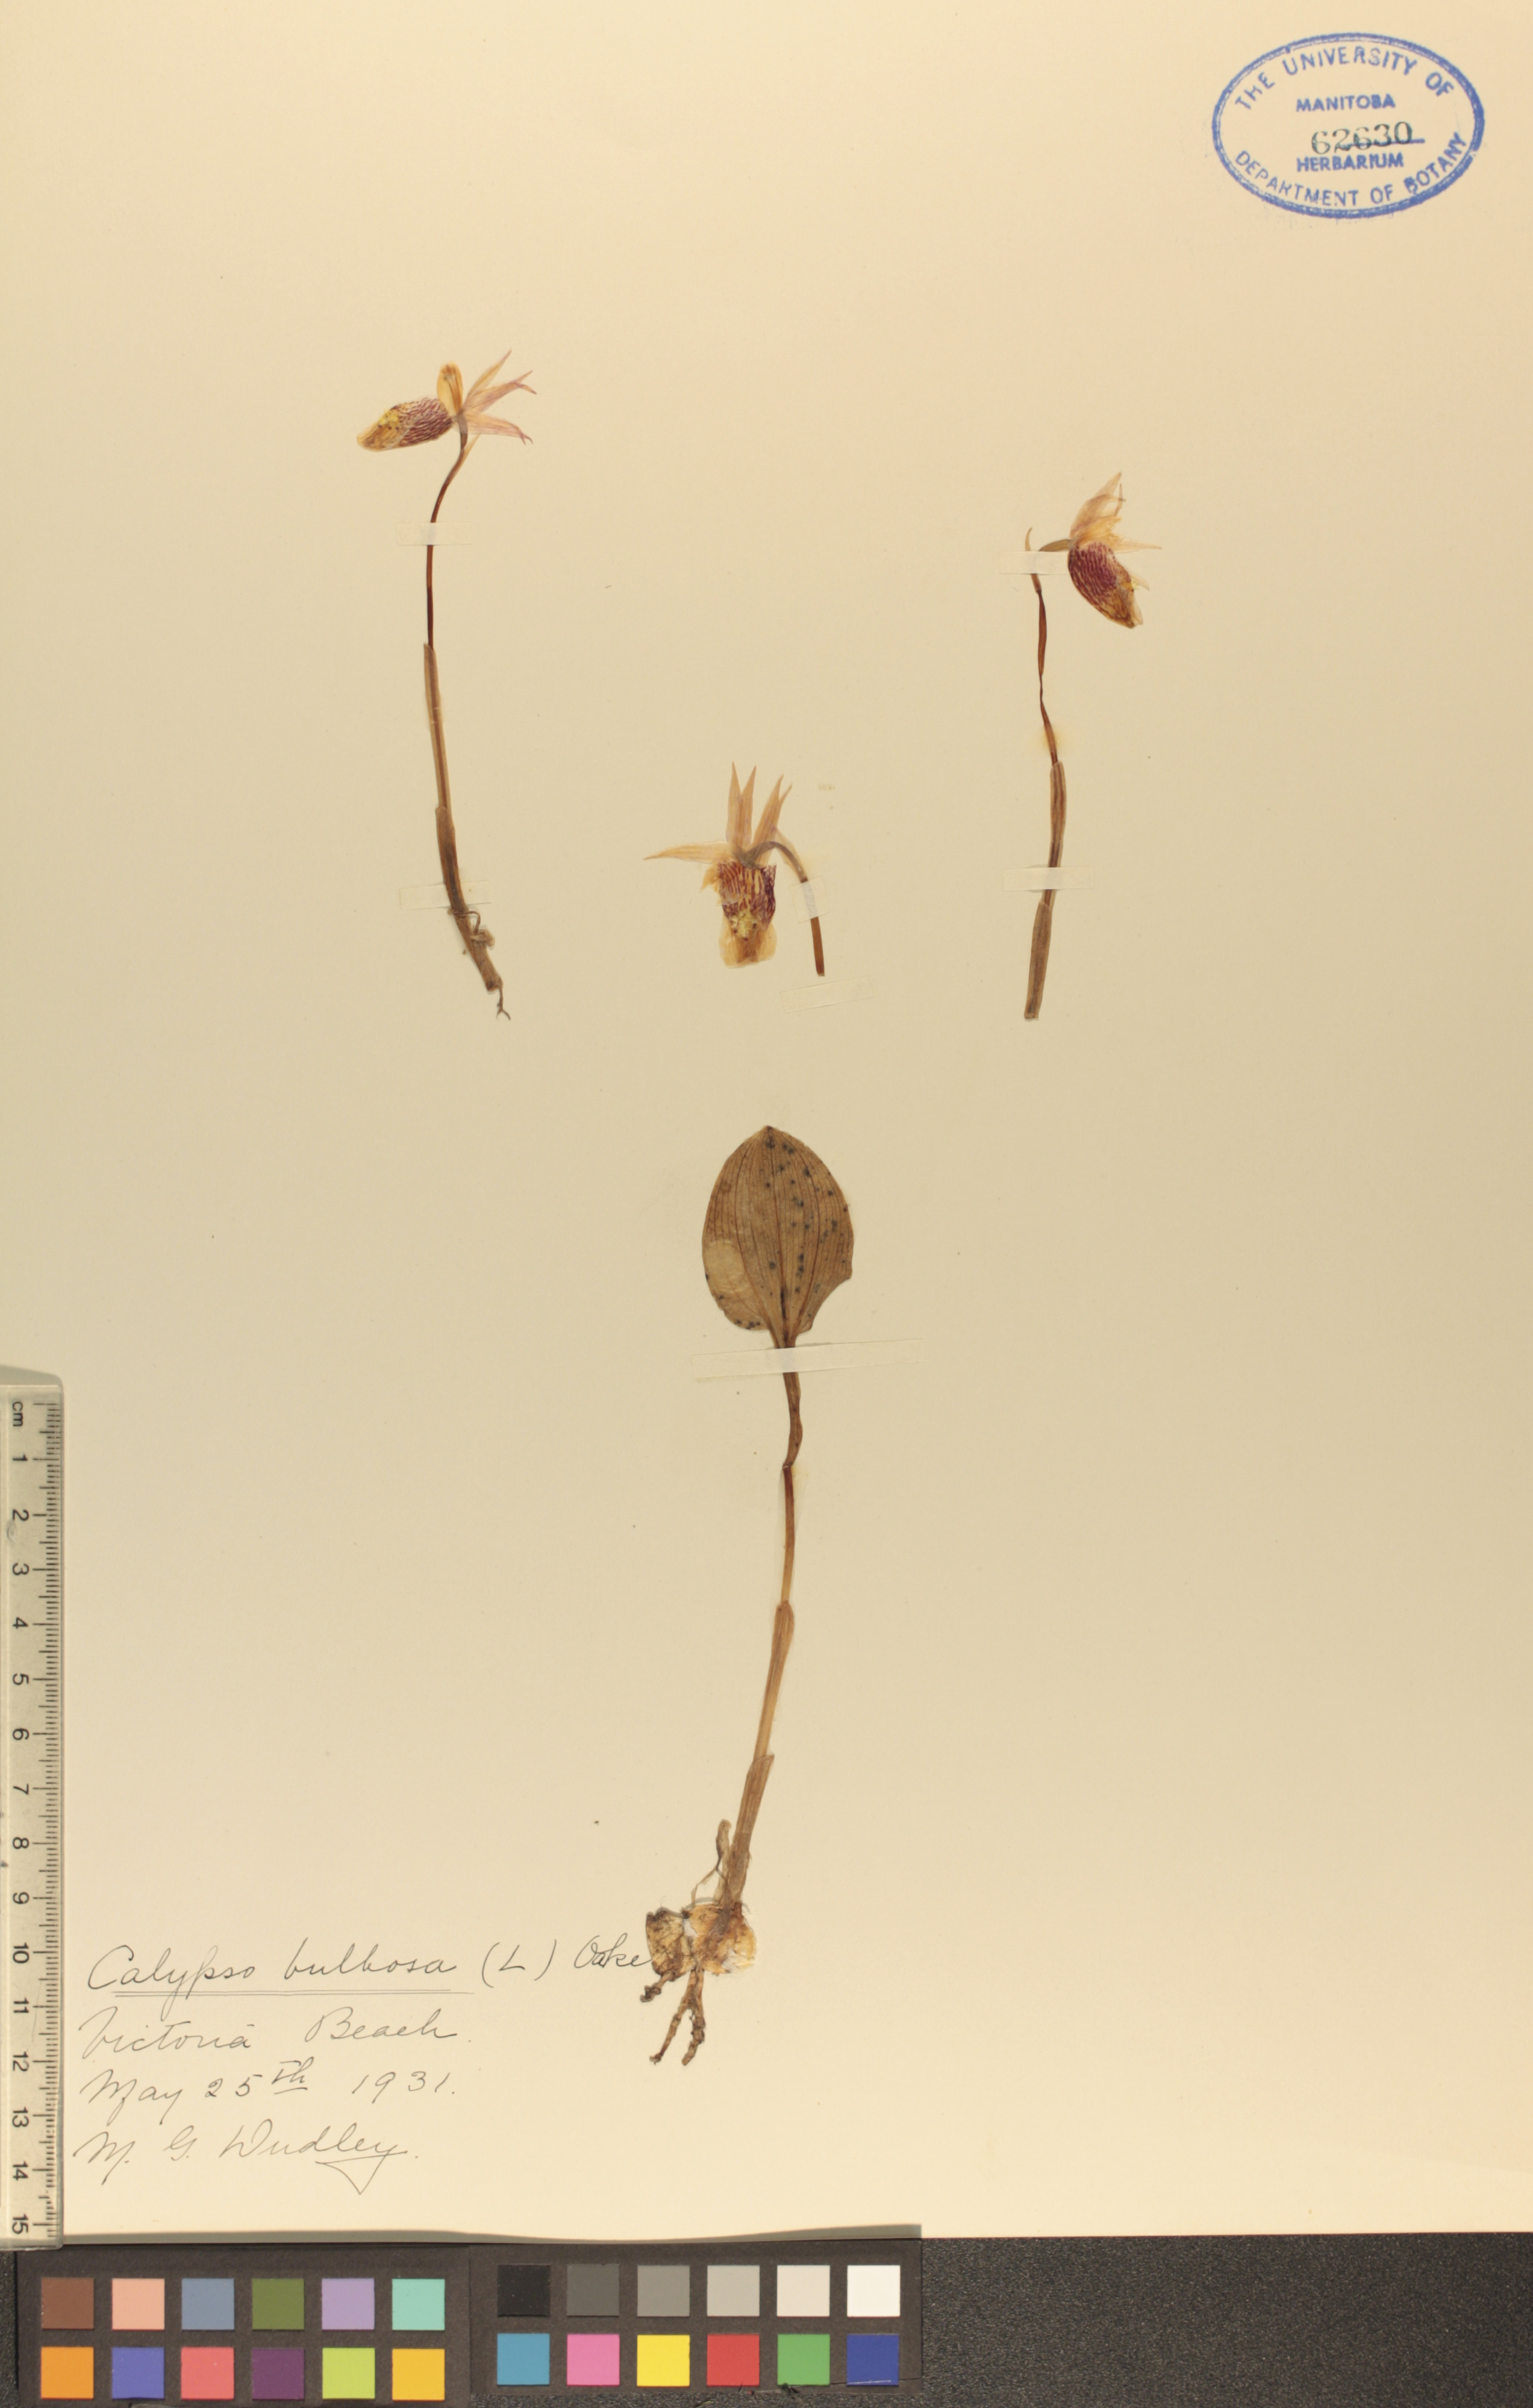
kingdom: Plantae
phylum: Tracheophyta
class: Liliopsida
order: Asparagales
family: Orchidaceae
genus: Calypso
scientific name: Calypso bulbosa
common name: Calypso
